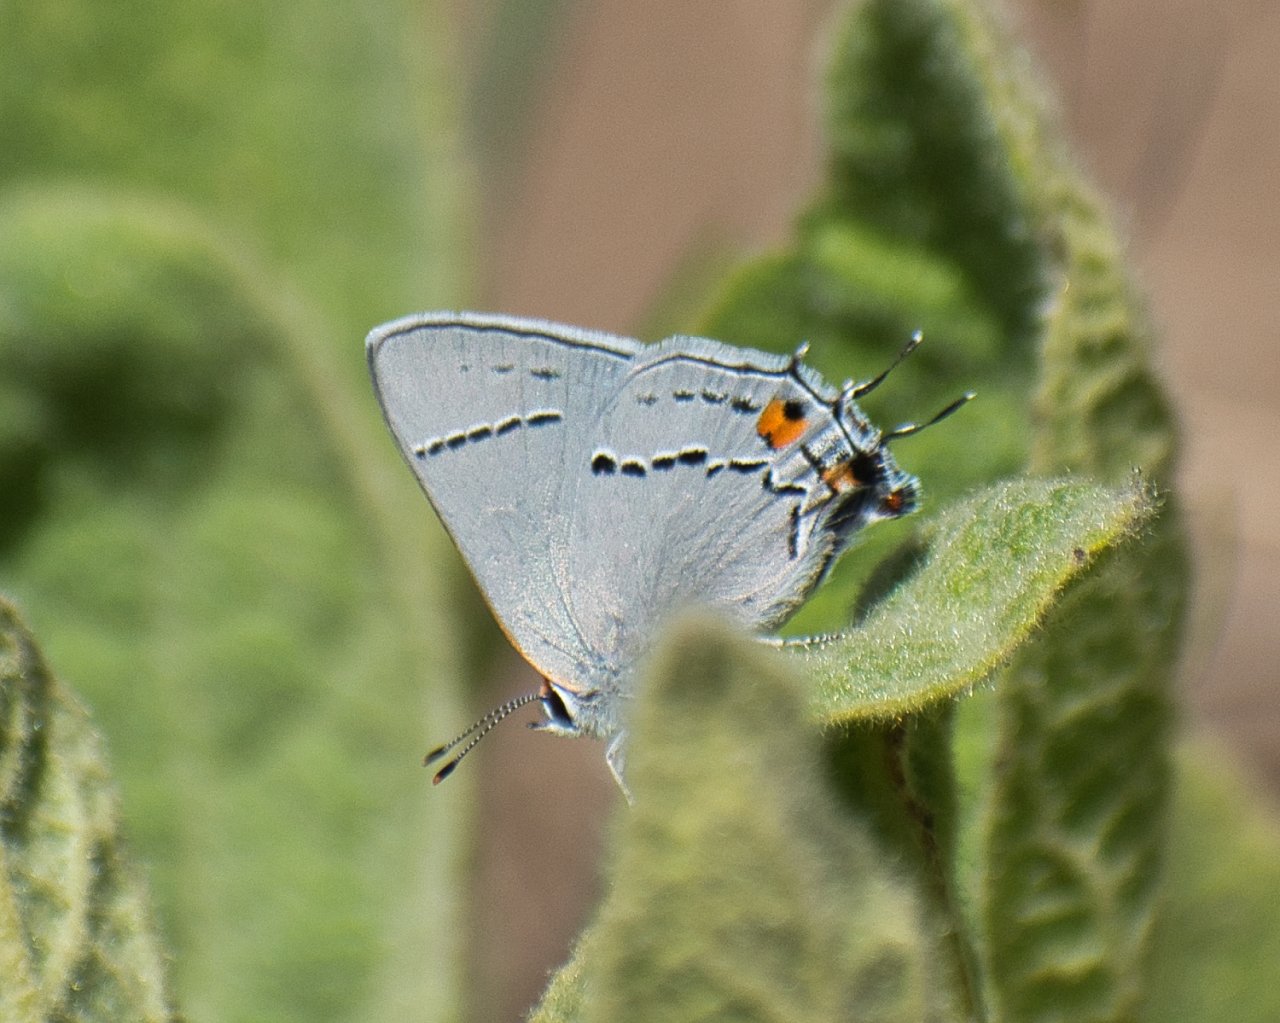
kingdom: Animalia
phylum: Arthropoda
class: Insecta
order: Lepidoptera
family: Lycaenidae
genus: Strymon
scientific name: Strymon melinus
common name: Gray Hairstreak
